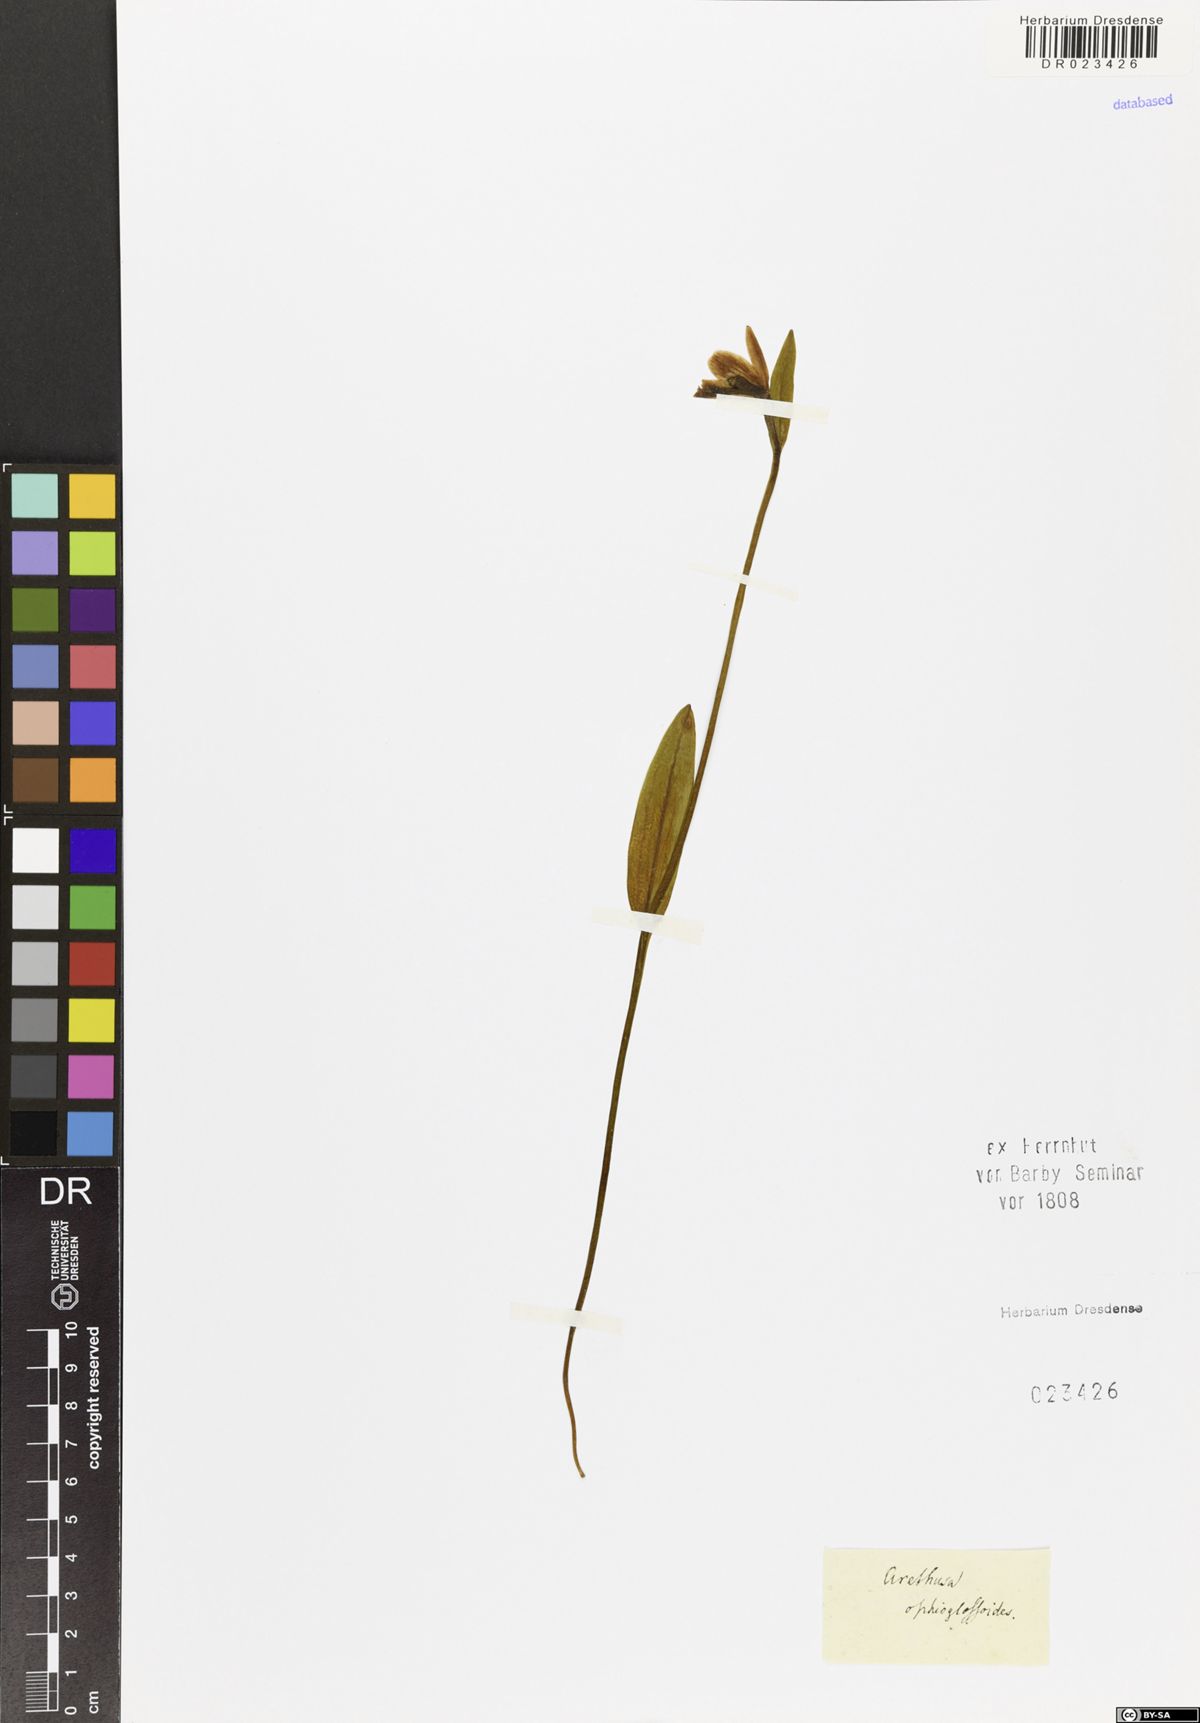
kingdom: Plantae
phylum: Tracheophyta
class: Liliopsida
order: Asparagales
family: Orchidaceae
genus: Pogonia
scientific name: Pogonia ophioglossoides
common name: Rose pogonia
